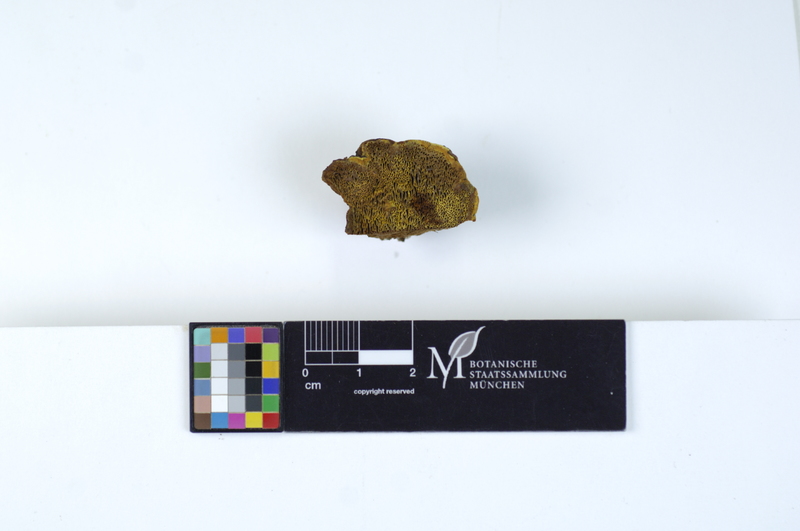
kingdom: Fungi
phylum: Basidiomycota
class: Agaricomycetes
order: Hymenochaetales
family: Hymenochaetaceae
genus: Phellinus
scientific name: Phellinus chrysoloma
